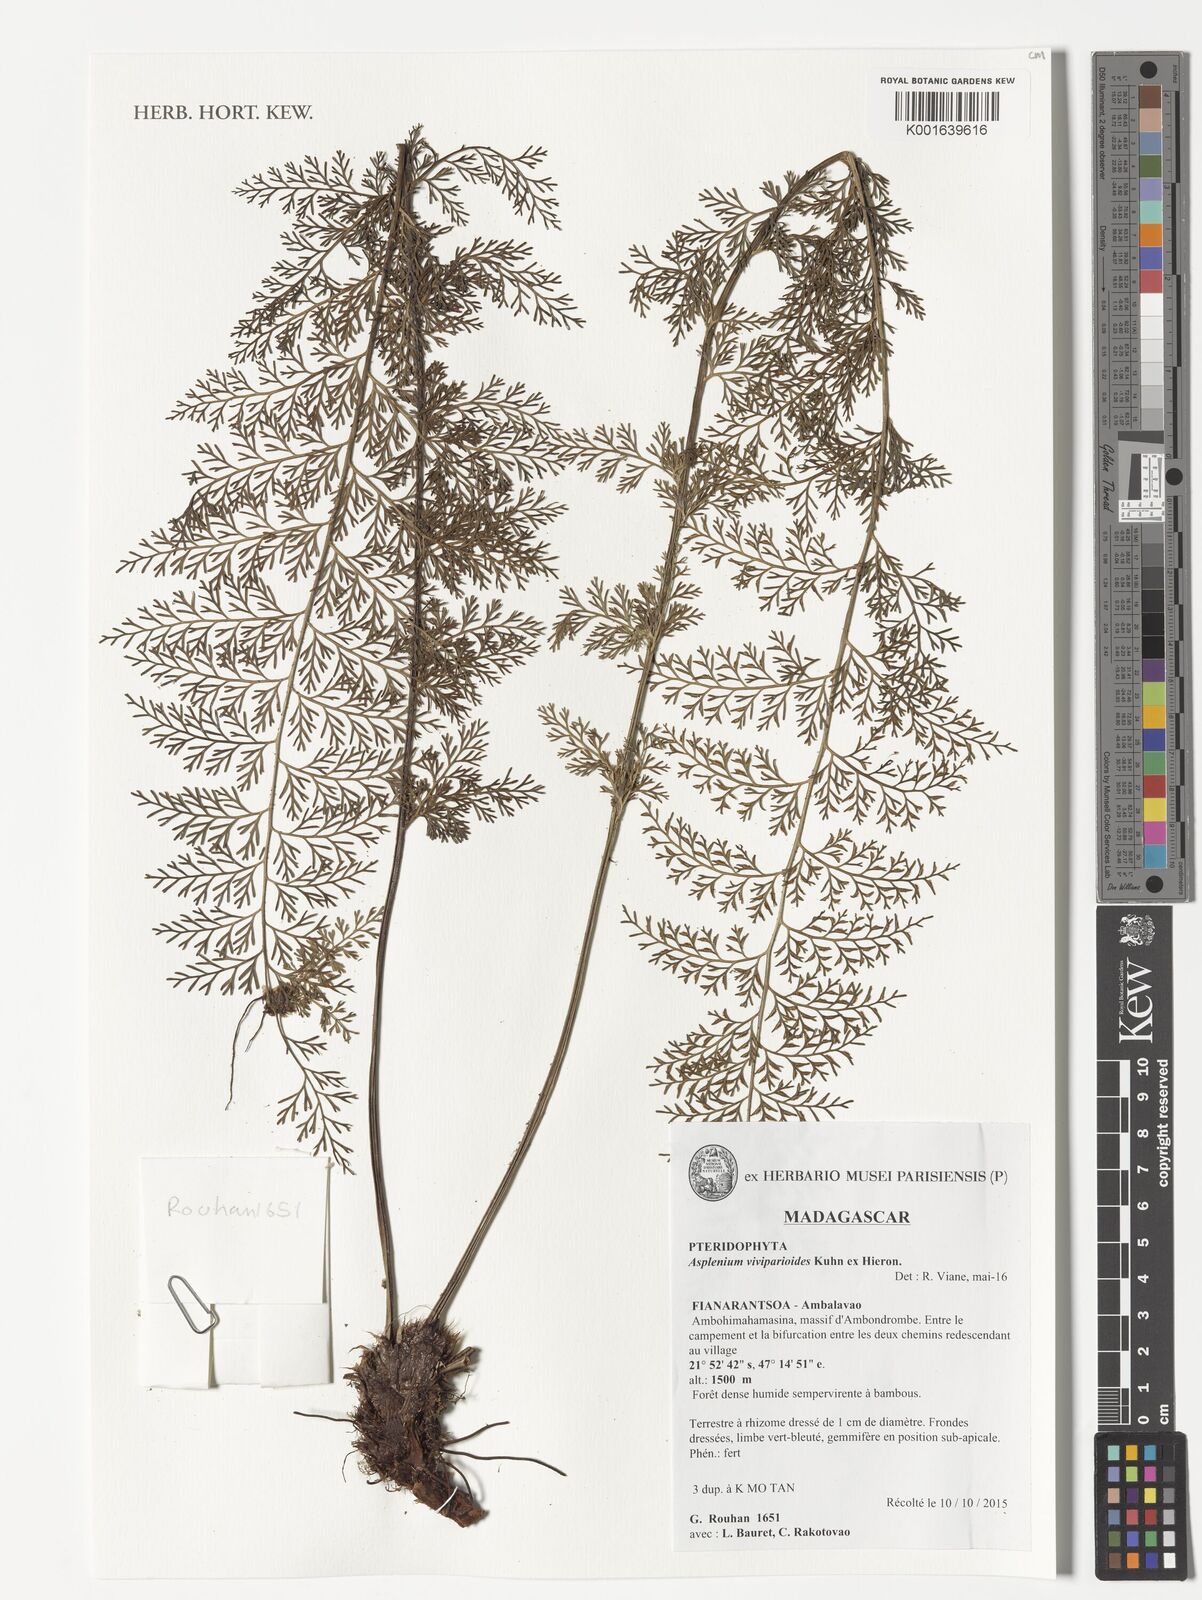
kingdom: Plantae
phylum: Tracheophyta
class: Polypodiopsida
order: Polypodiales
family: Aspleniaceae
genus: Asplenium
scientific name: Asplenium viviparioides
